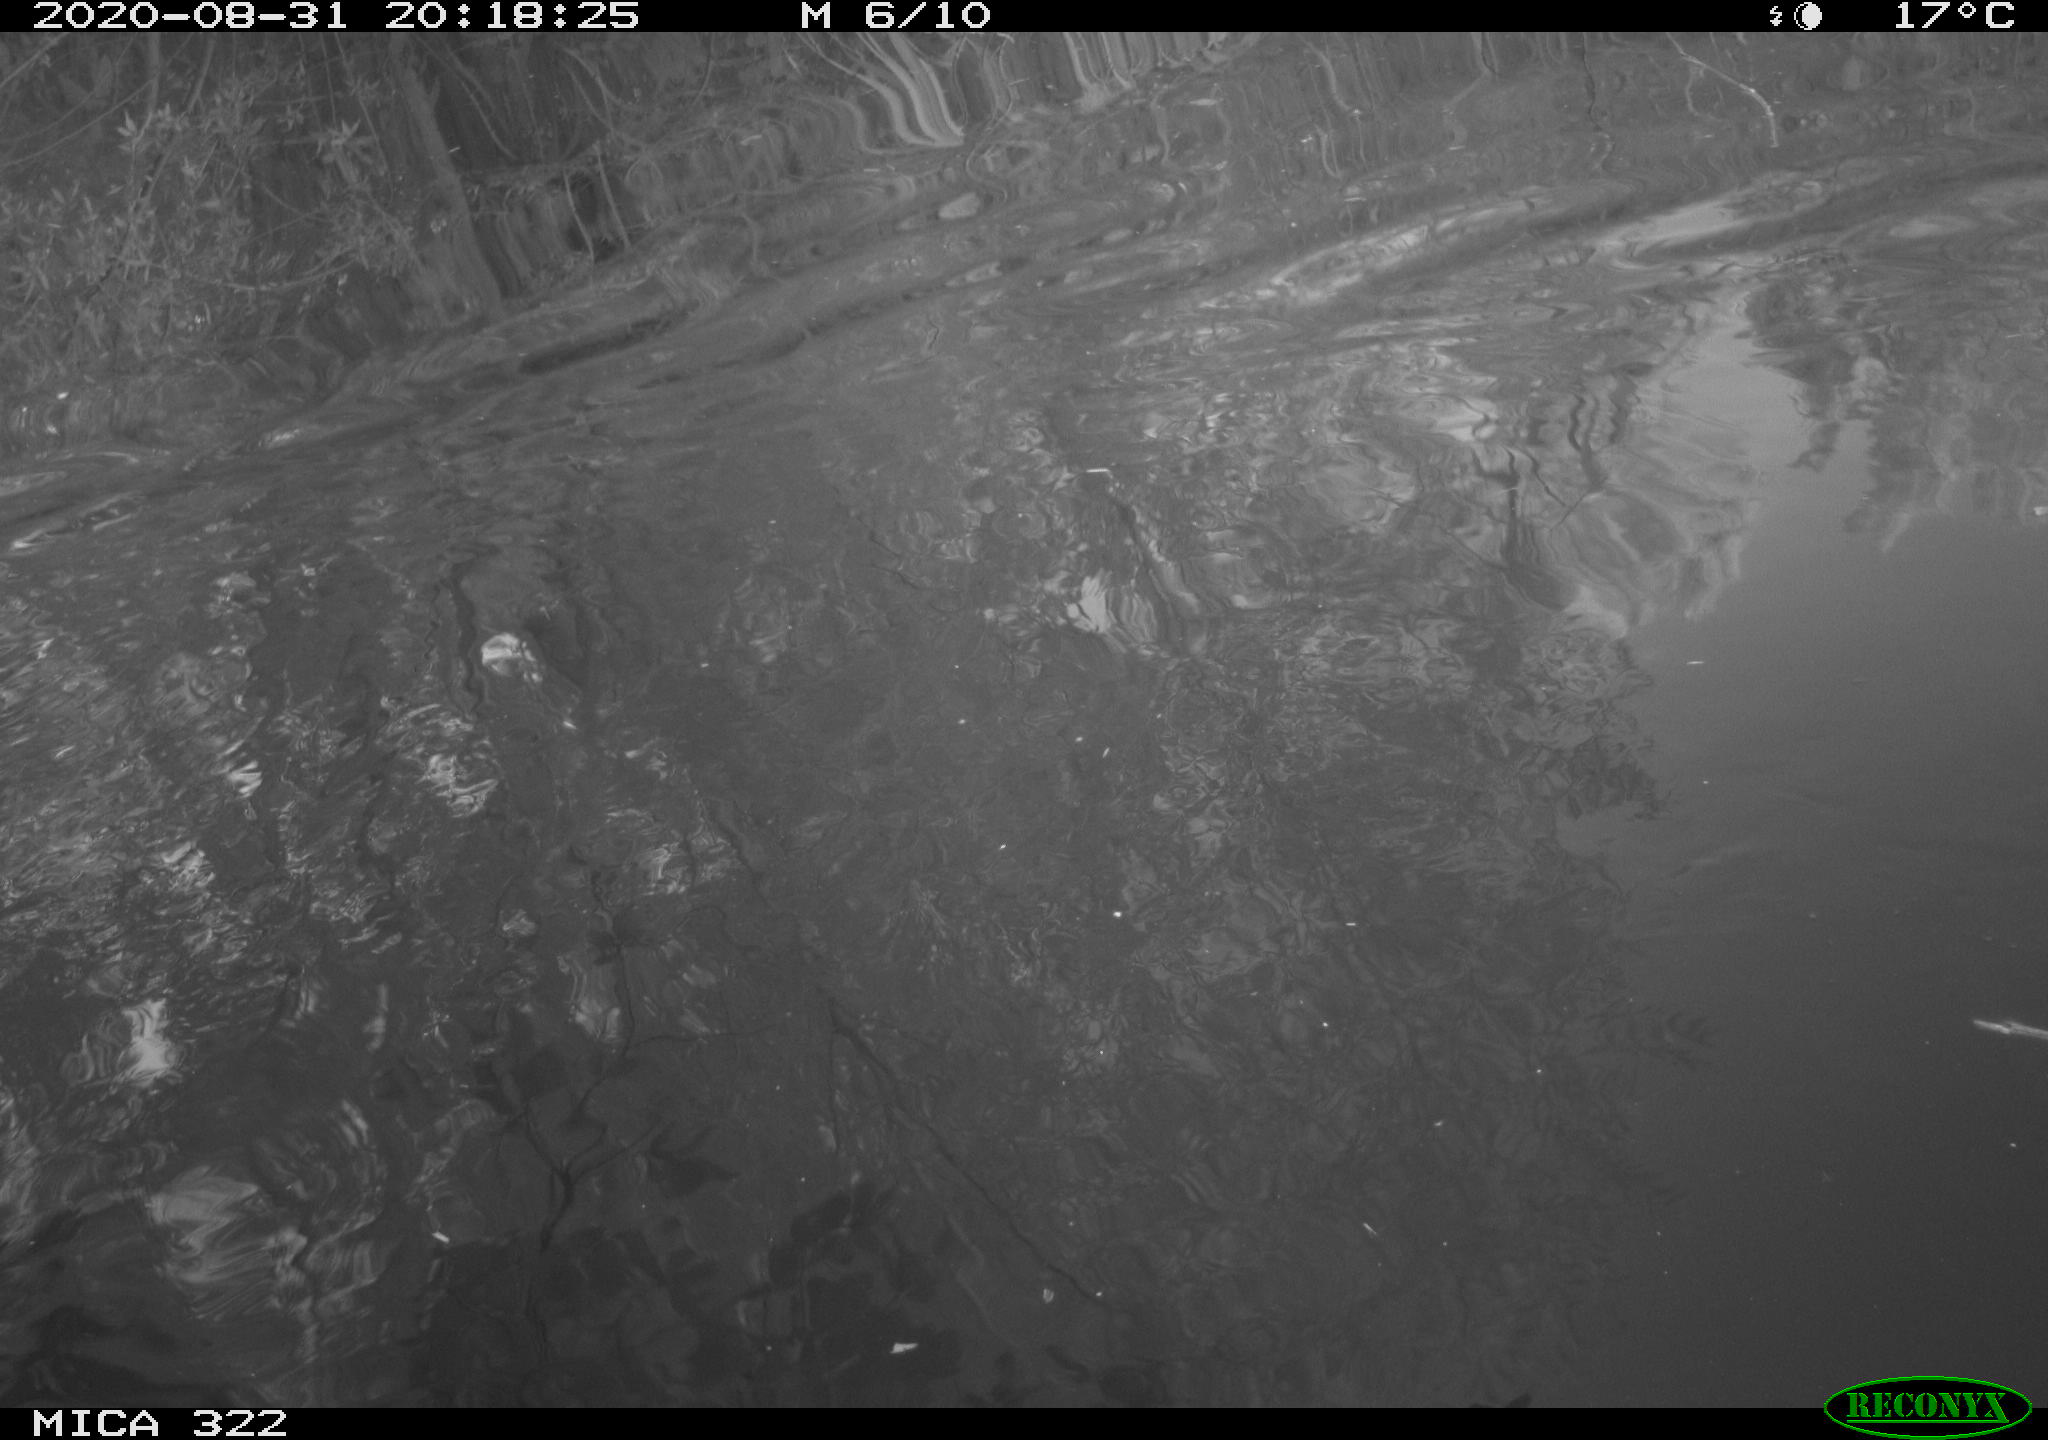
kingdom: Animalia
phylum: Chordata
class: Aves
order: Gruiformes
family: Rallidae
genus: Fulica
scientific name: Fulica atra
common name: Eurasian coot
